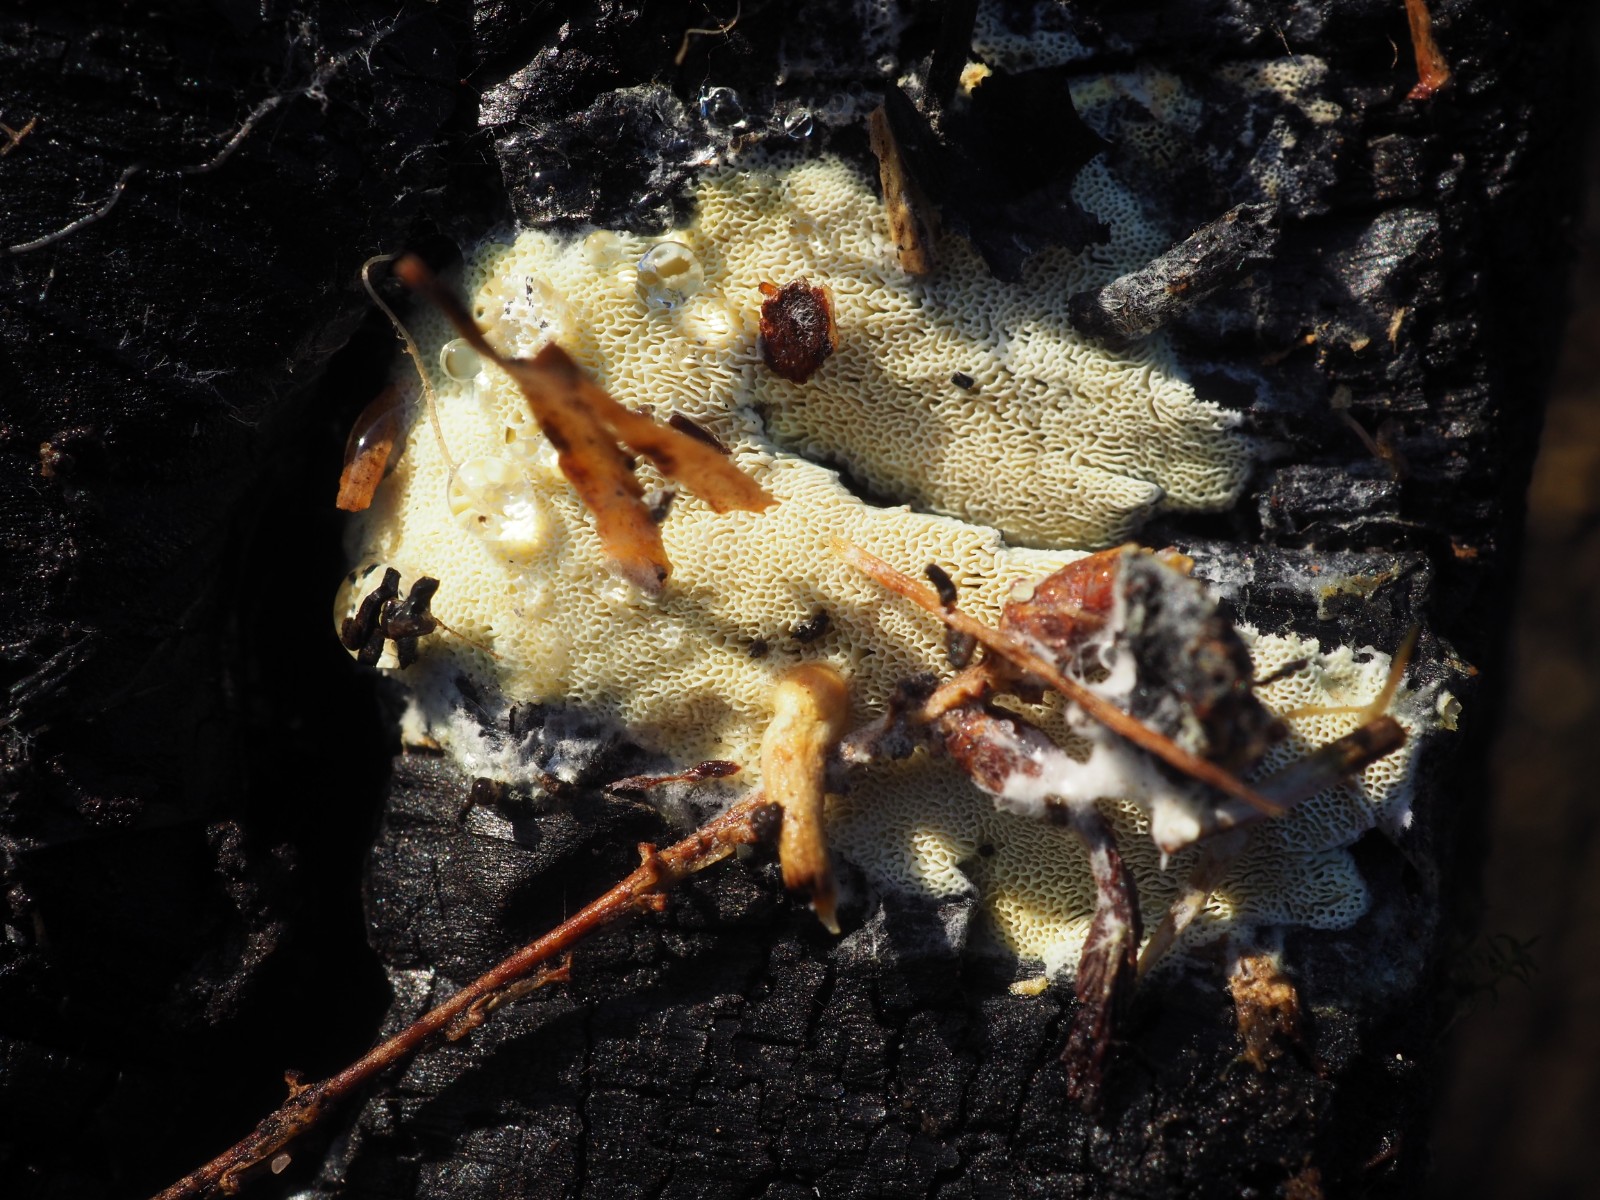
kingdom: Fungi
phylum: Basidiomycota
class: Agaricomycetes
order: Polyporales
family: Fomitopsidaceae
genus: Daedalea
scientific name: Daedalea xantha
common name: gul sejporesvamp
